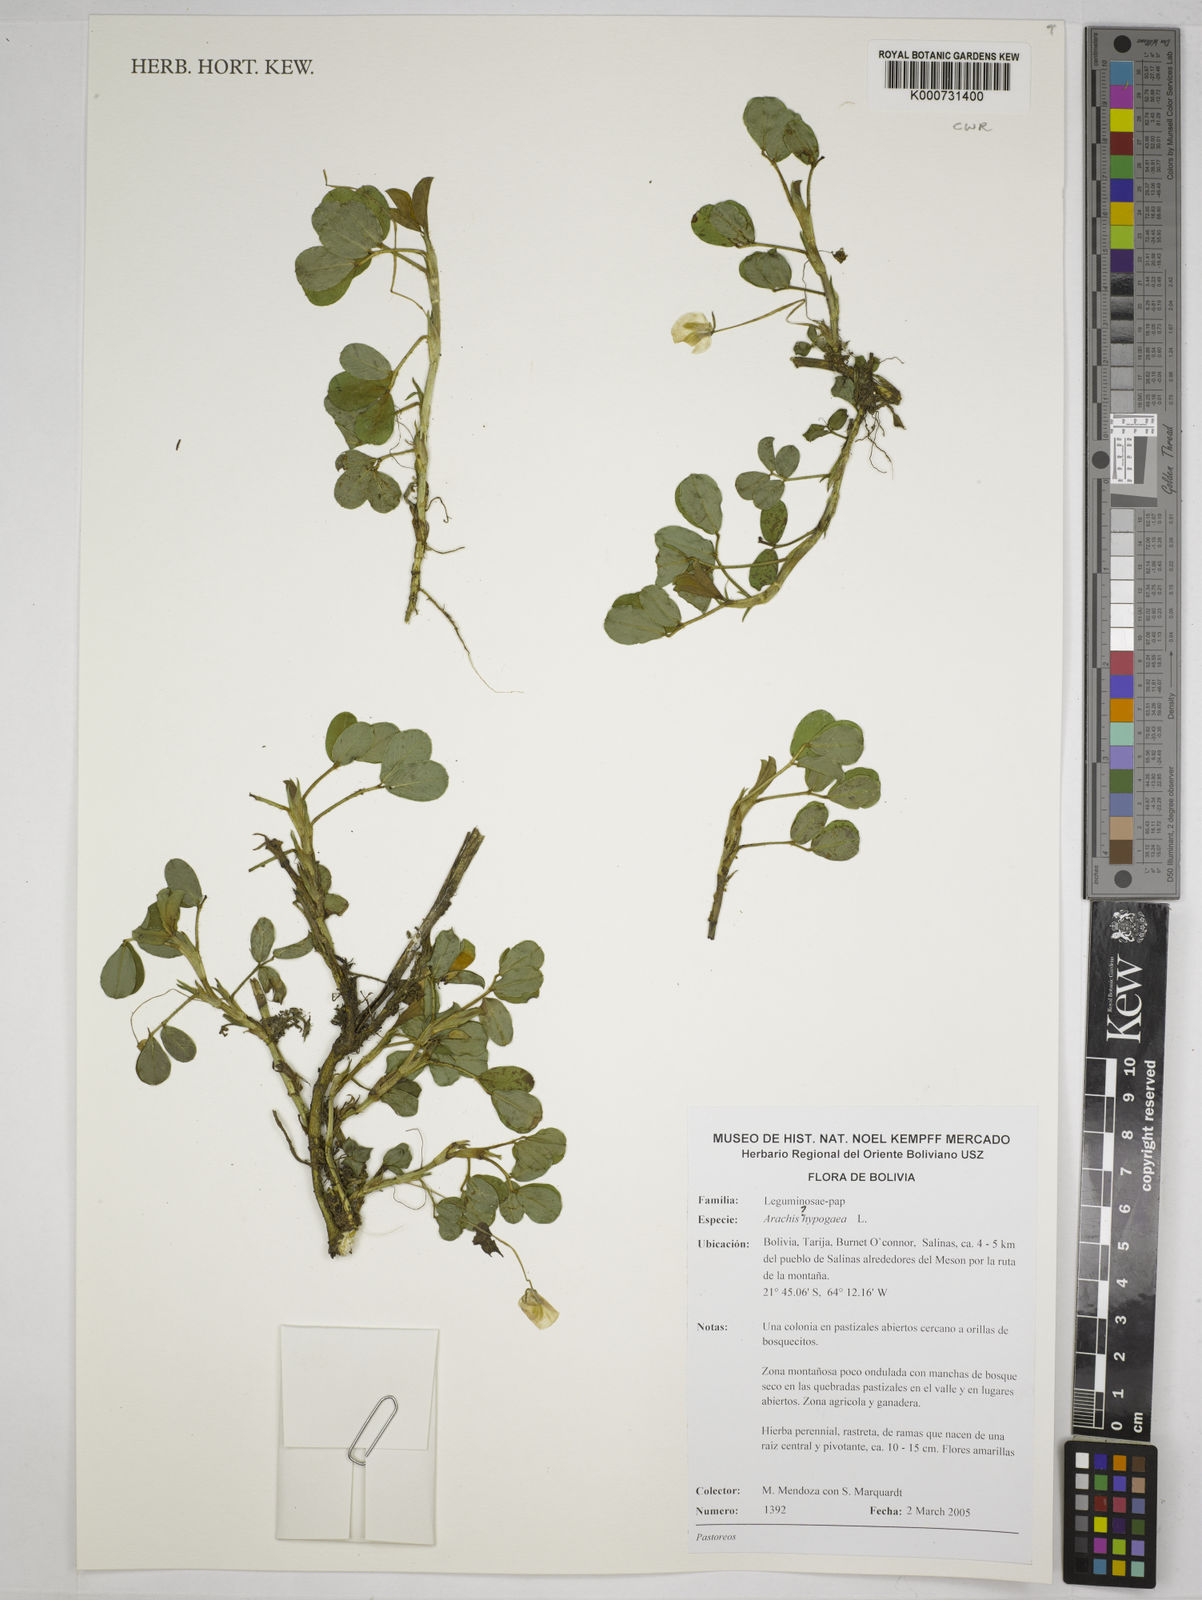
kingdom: Plantae
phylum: Tracheophyta
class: Magnoliopsida
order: Fabales
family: Fabaceae
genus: Arachis
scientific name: Arachis hypogaea
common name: Peanut
